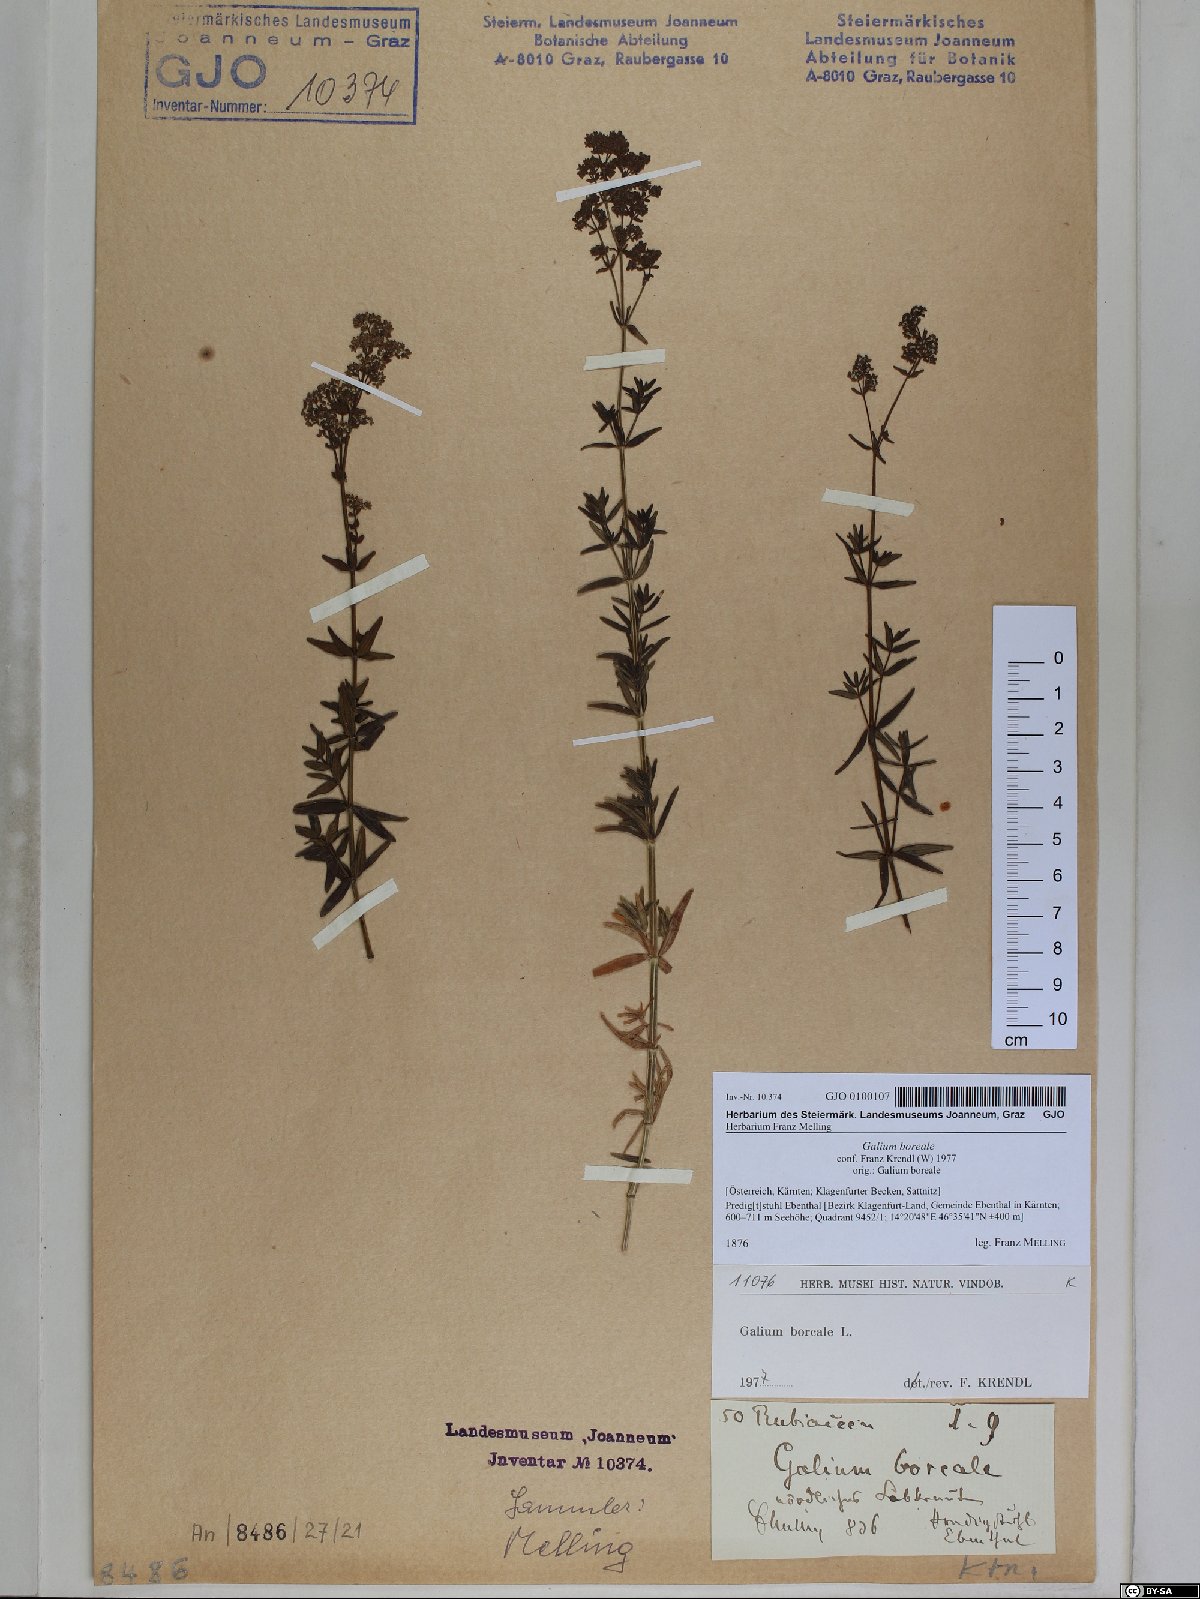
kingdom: Plantae
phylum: Tracheophyta
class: Magnoliopsida
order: Gentianales
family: Rubiaceae
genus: Galium
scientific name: Galium boreale
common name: Northern bedstraw
